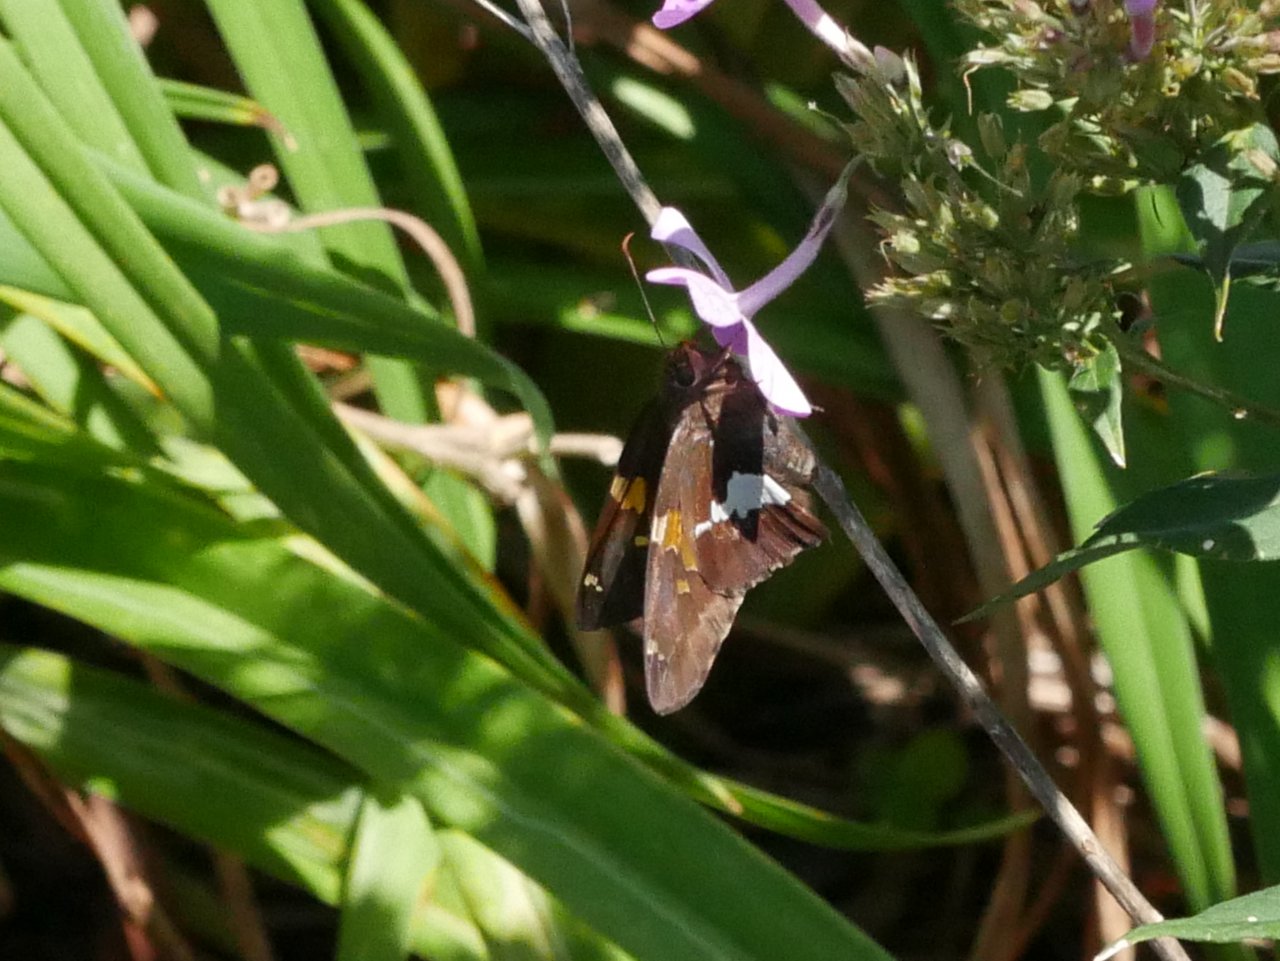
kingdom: Animalia
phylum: Arthropoda
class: Insecta
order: Lepidoptera
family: Hesperiidae
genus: Epargyreus
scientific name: Epargyreus clarus
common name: Silver-spotted Skipper
